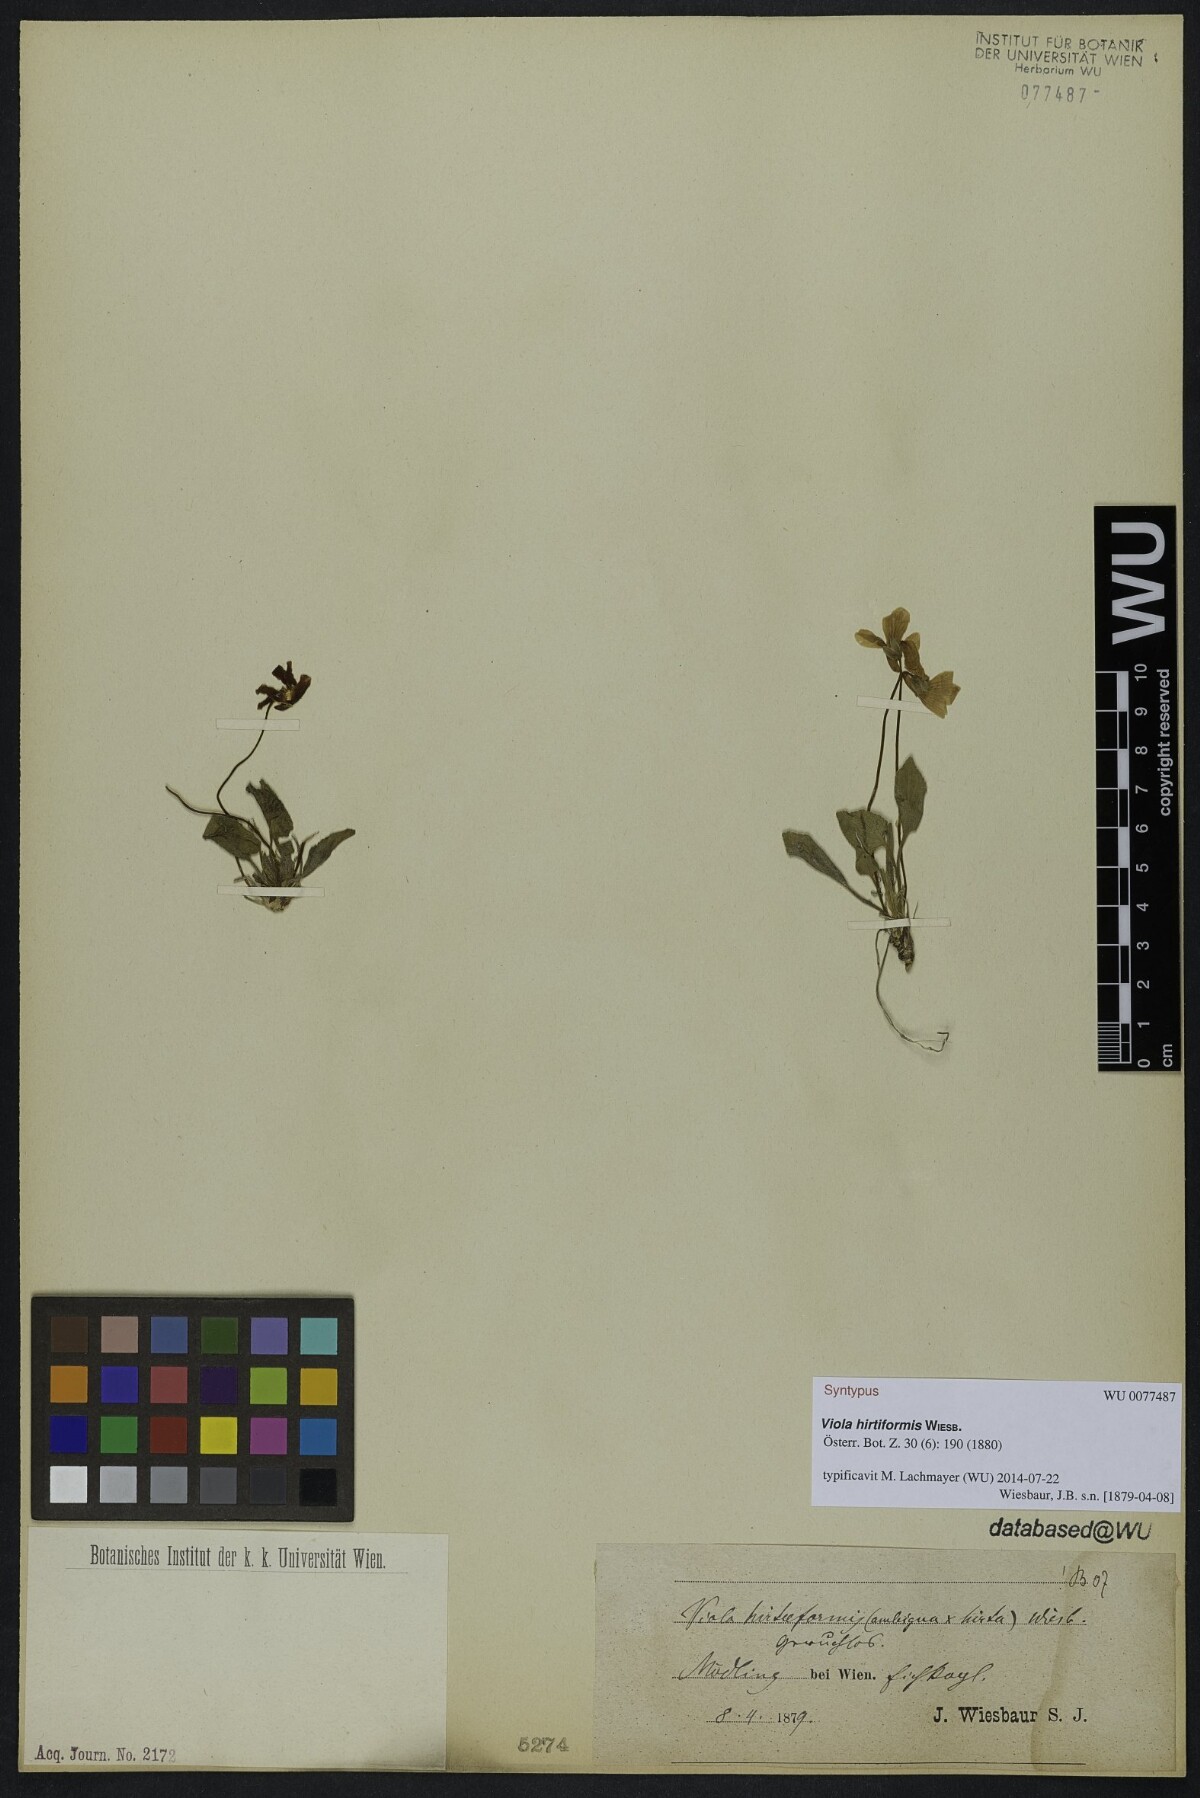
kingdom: Plantae
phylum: Tracheophyta
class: Magnoliopsida
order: Malpighiales
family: Violaceae
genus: Viola
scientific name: Viola hirtiformis
